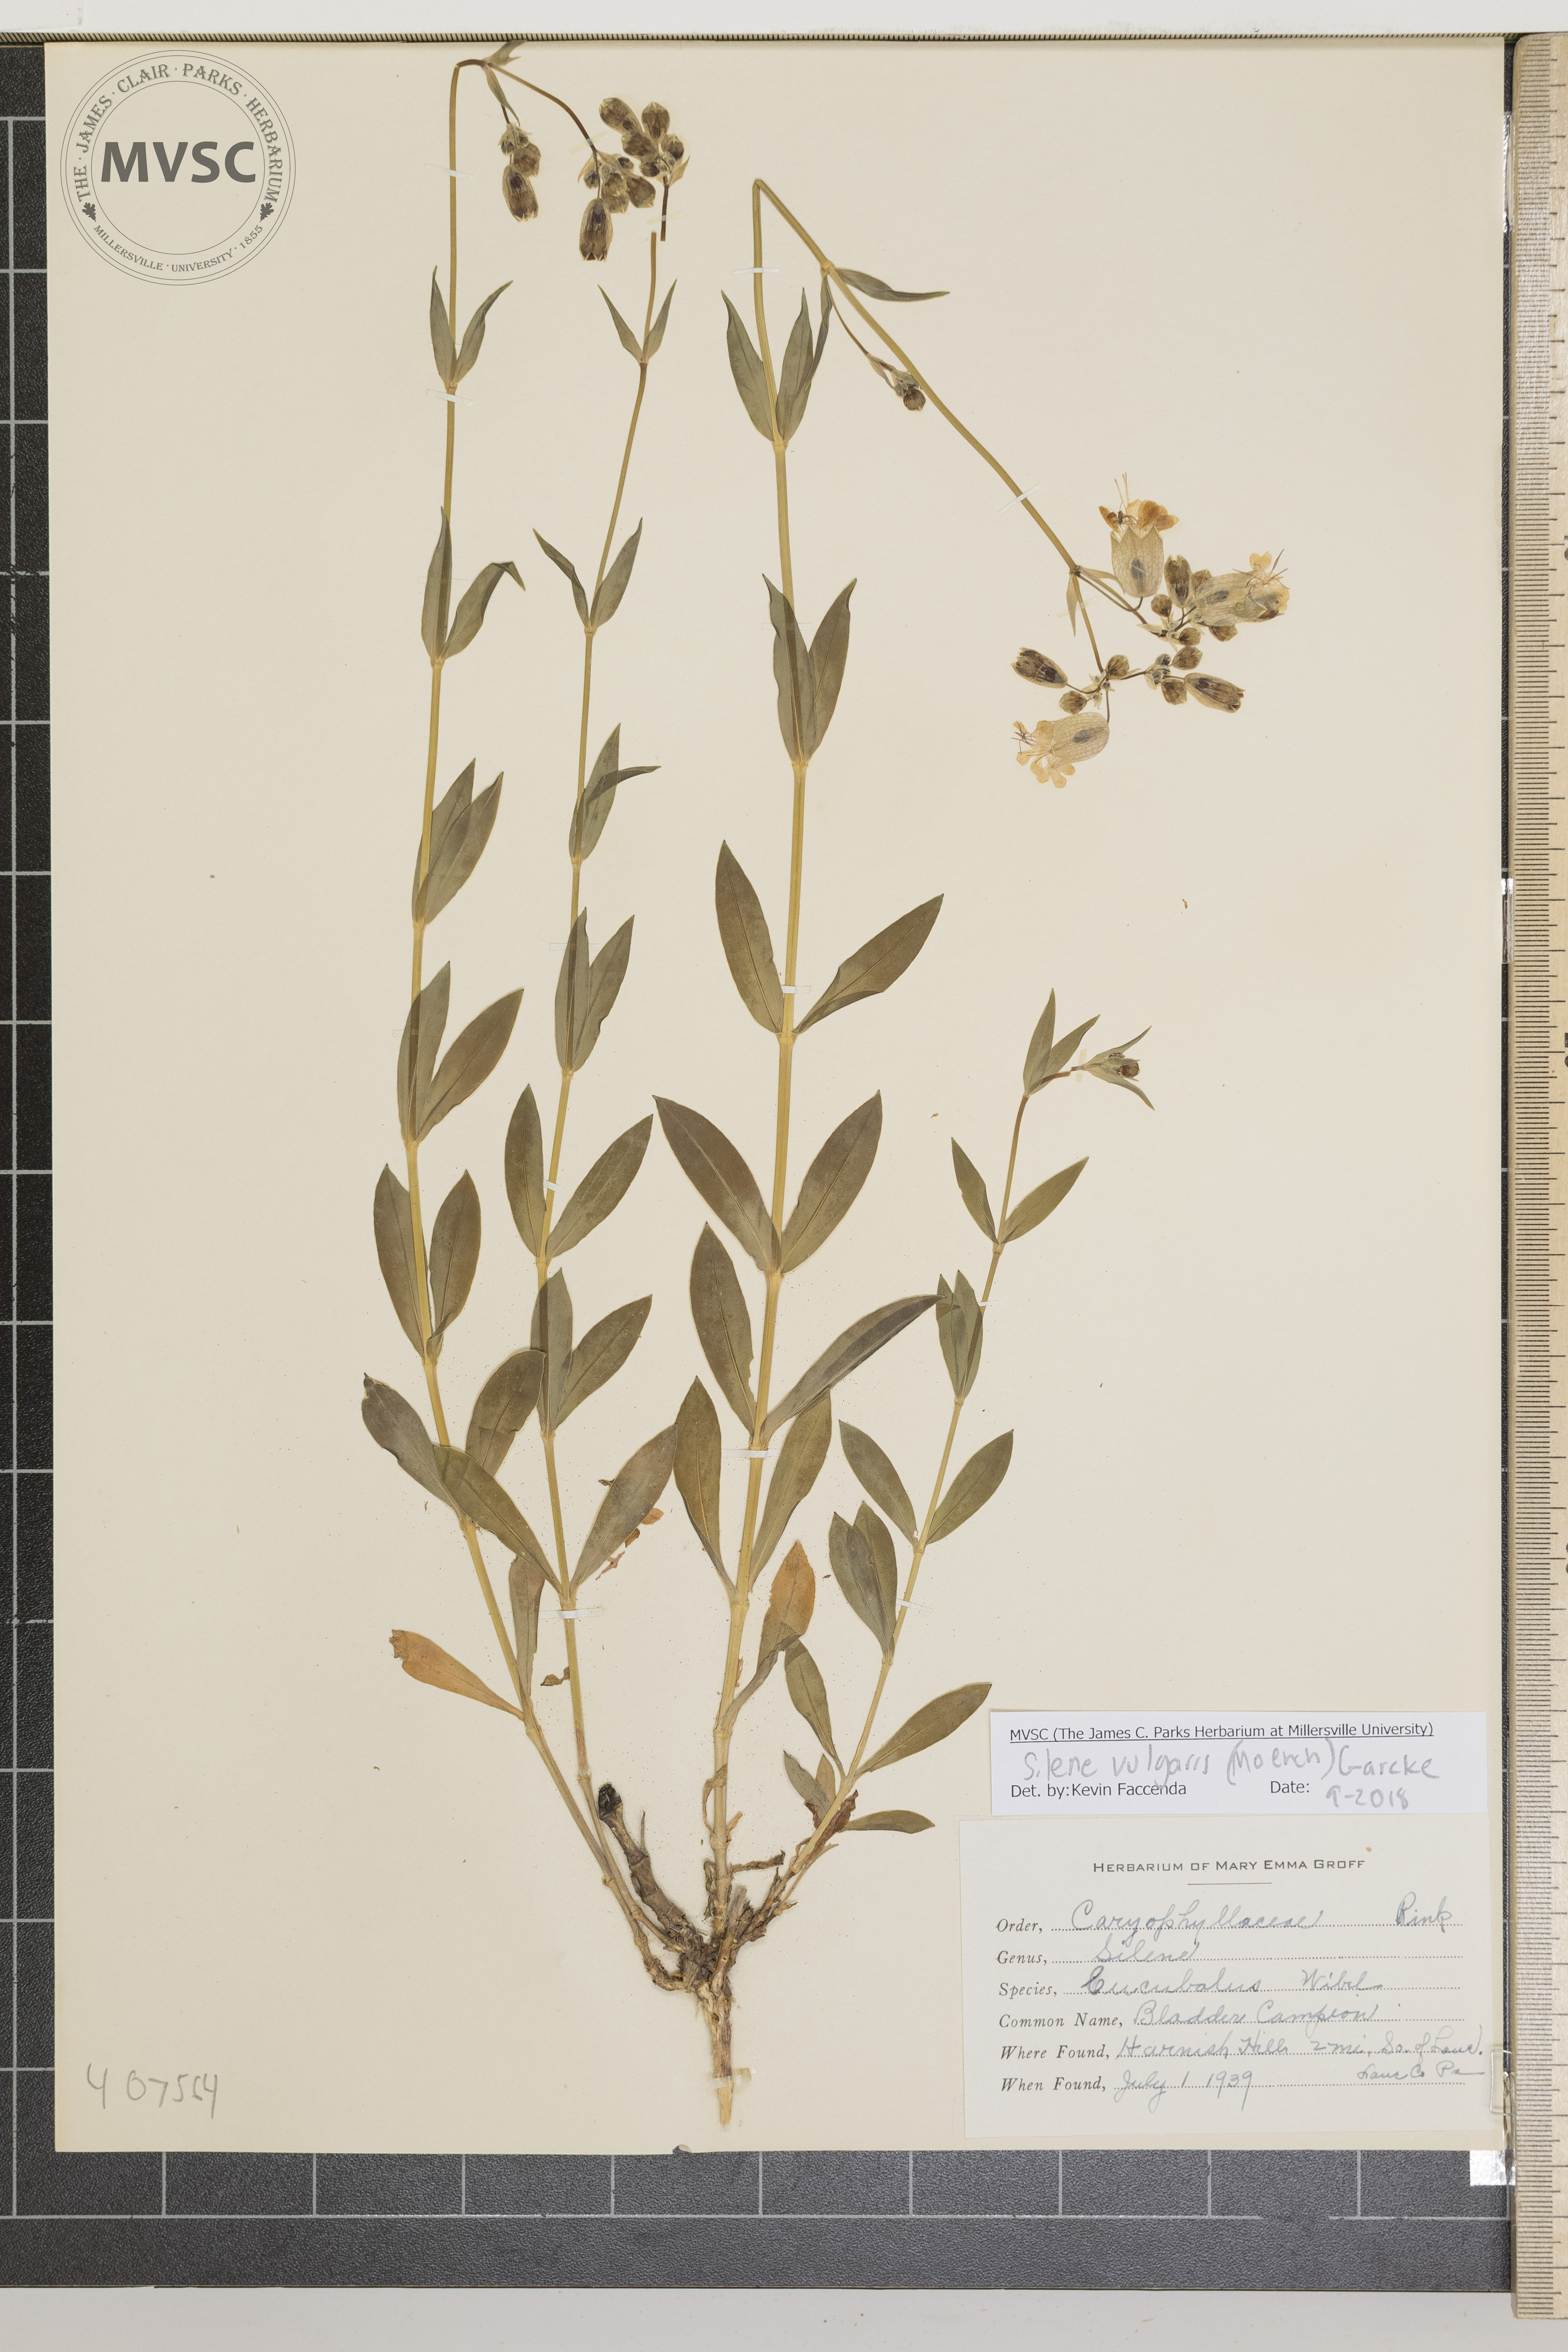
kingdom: Plantae
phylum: Tracheophyta
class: Magnoliopsida
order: Caryophyllales
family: Caryophyllaceae
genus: Silene
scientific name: Silene vulgaris
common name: bladder campion
